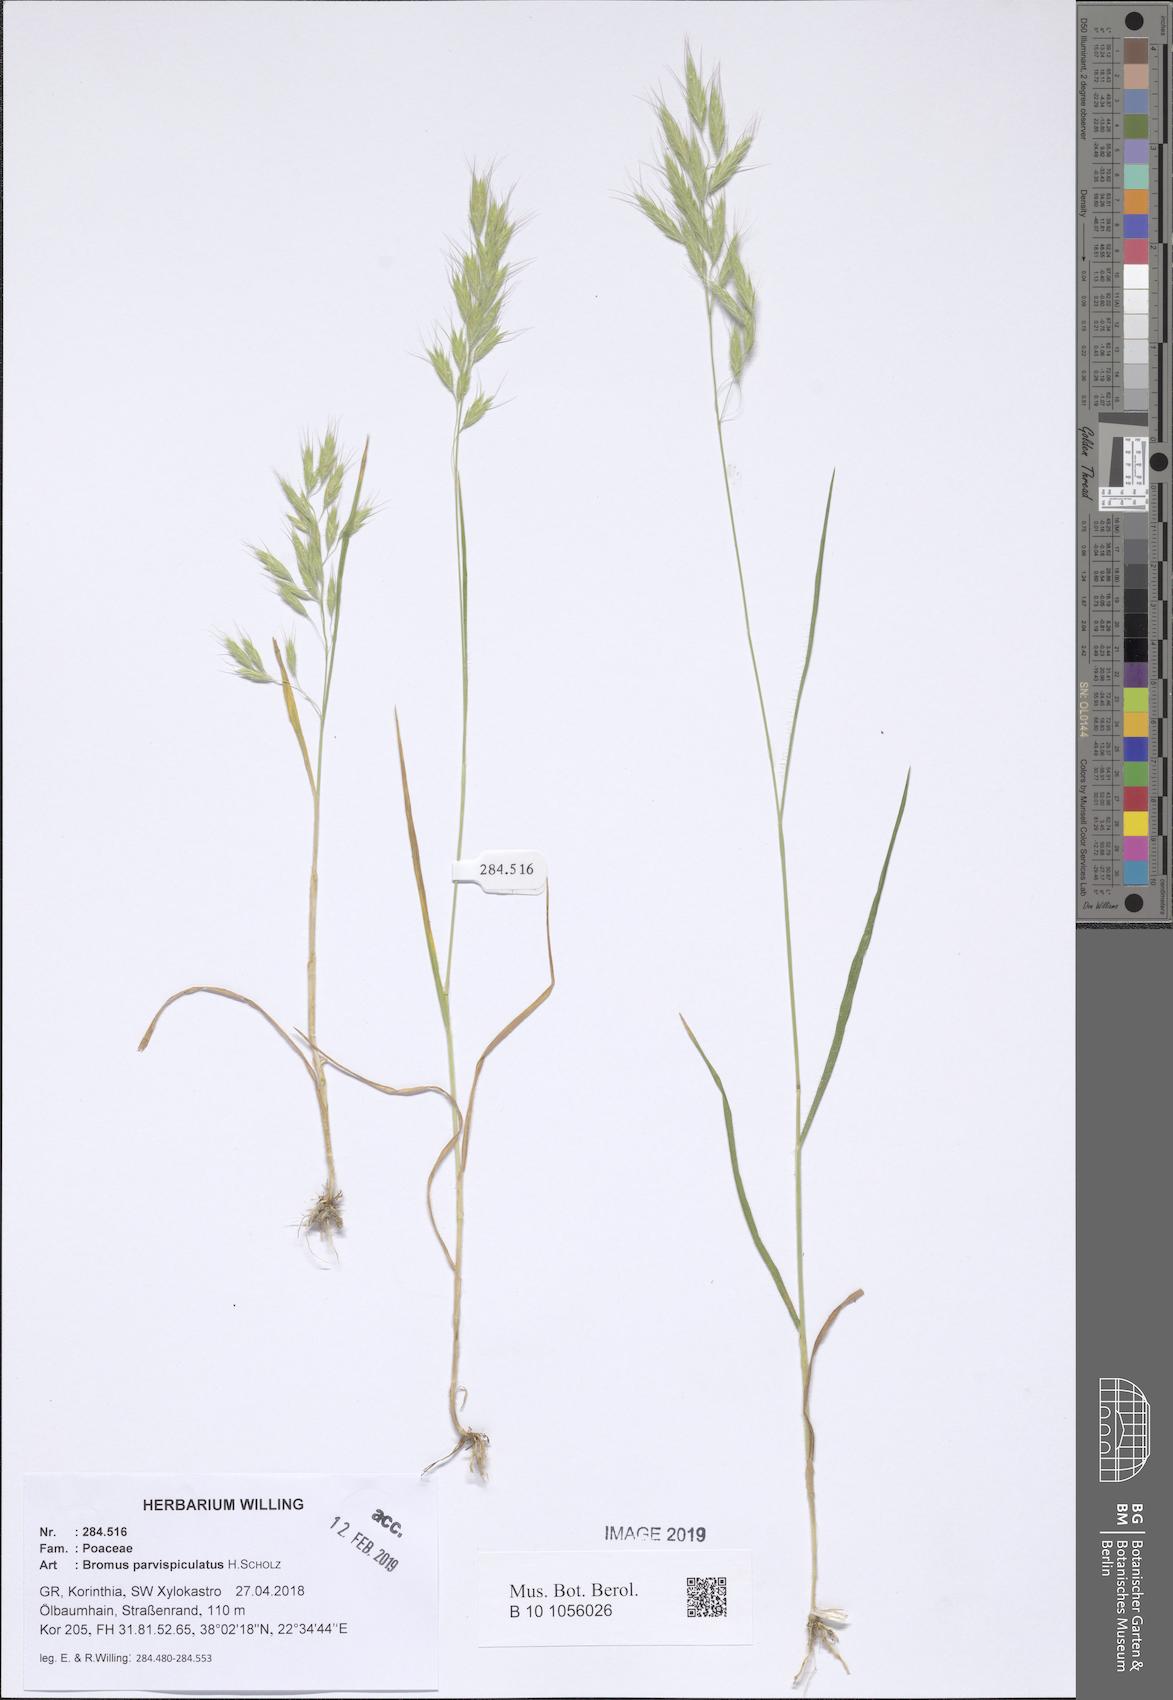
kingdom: Plantae
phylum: Tracheophyta
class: Liliopsida
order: Poales
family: Poaceae
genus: Bromus
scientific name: Bromus hordeaceus
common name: Soft brome
